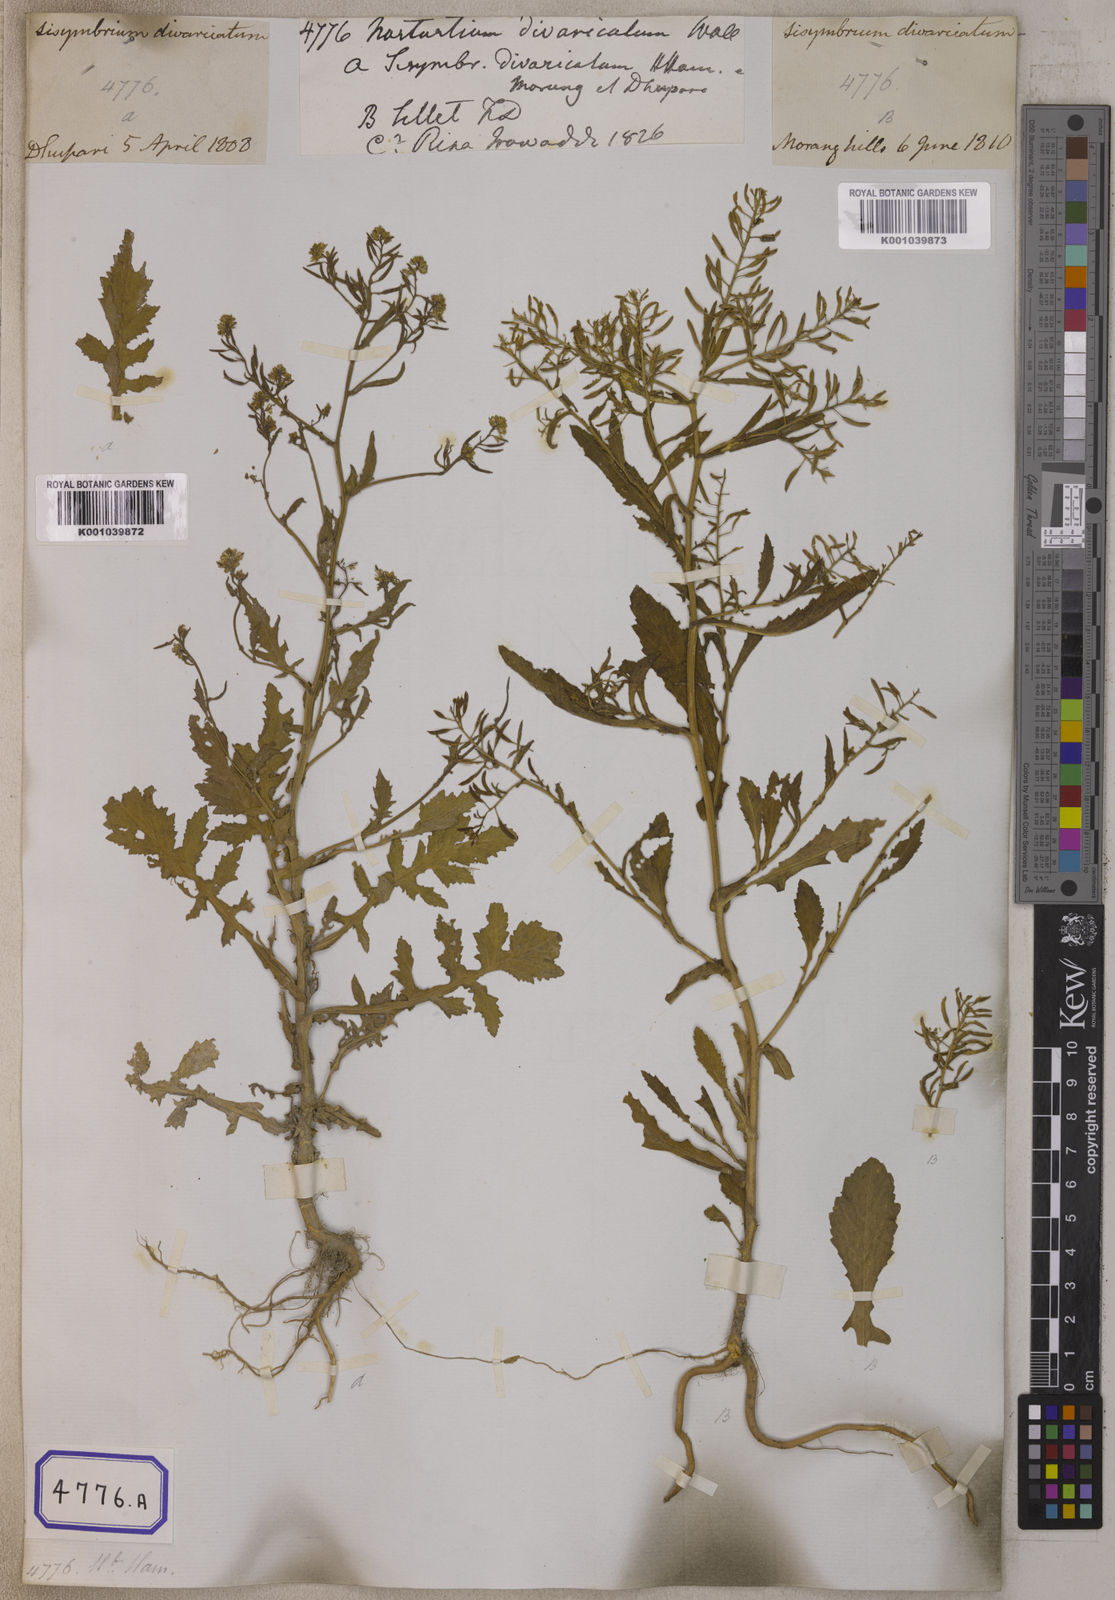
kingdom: Plantae
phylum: Tracheophyta
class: Magnoliopsida
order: Brassicales
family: Brassicaceae
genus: Rorippa
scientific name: Rorippa indica
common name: Variableleaf yellowcress
